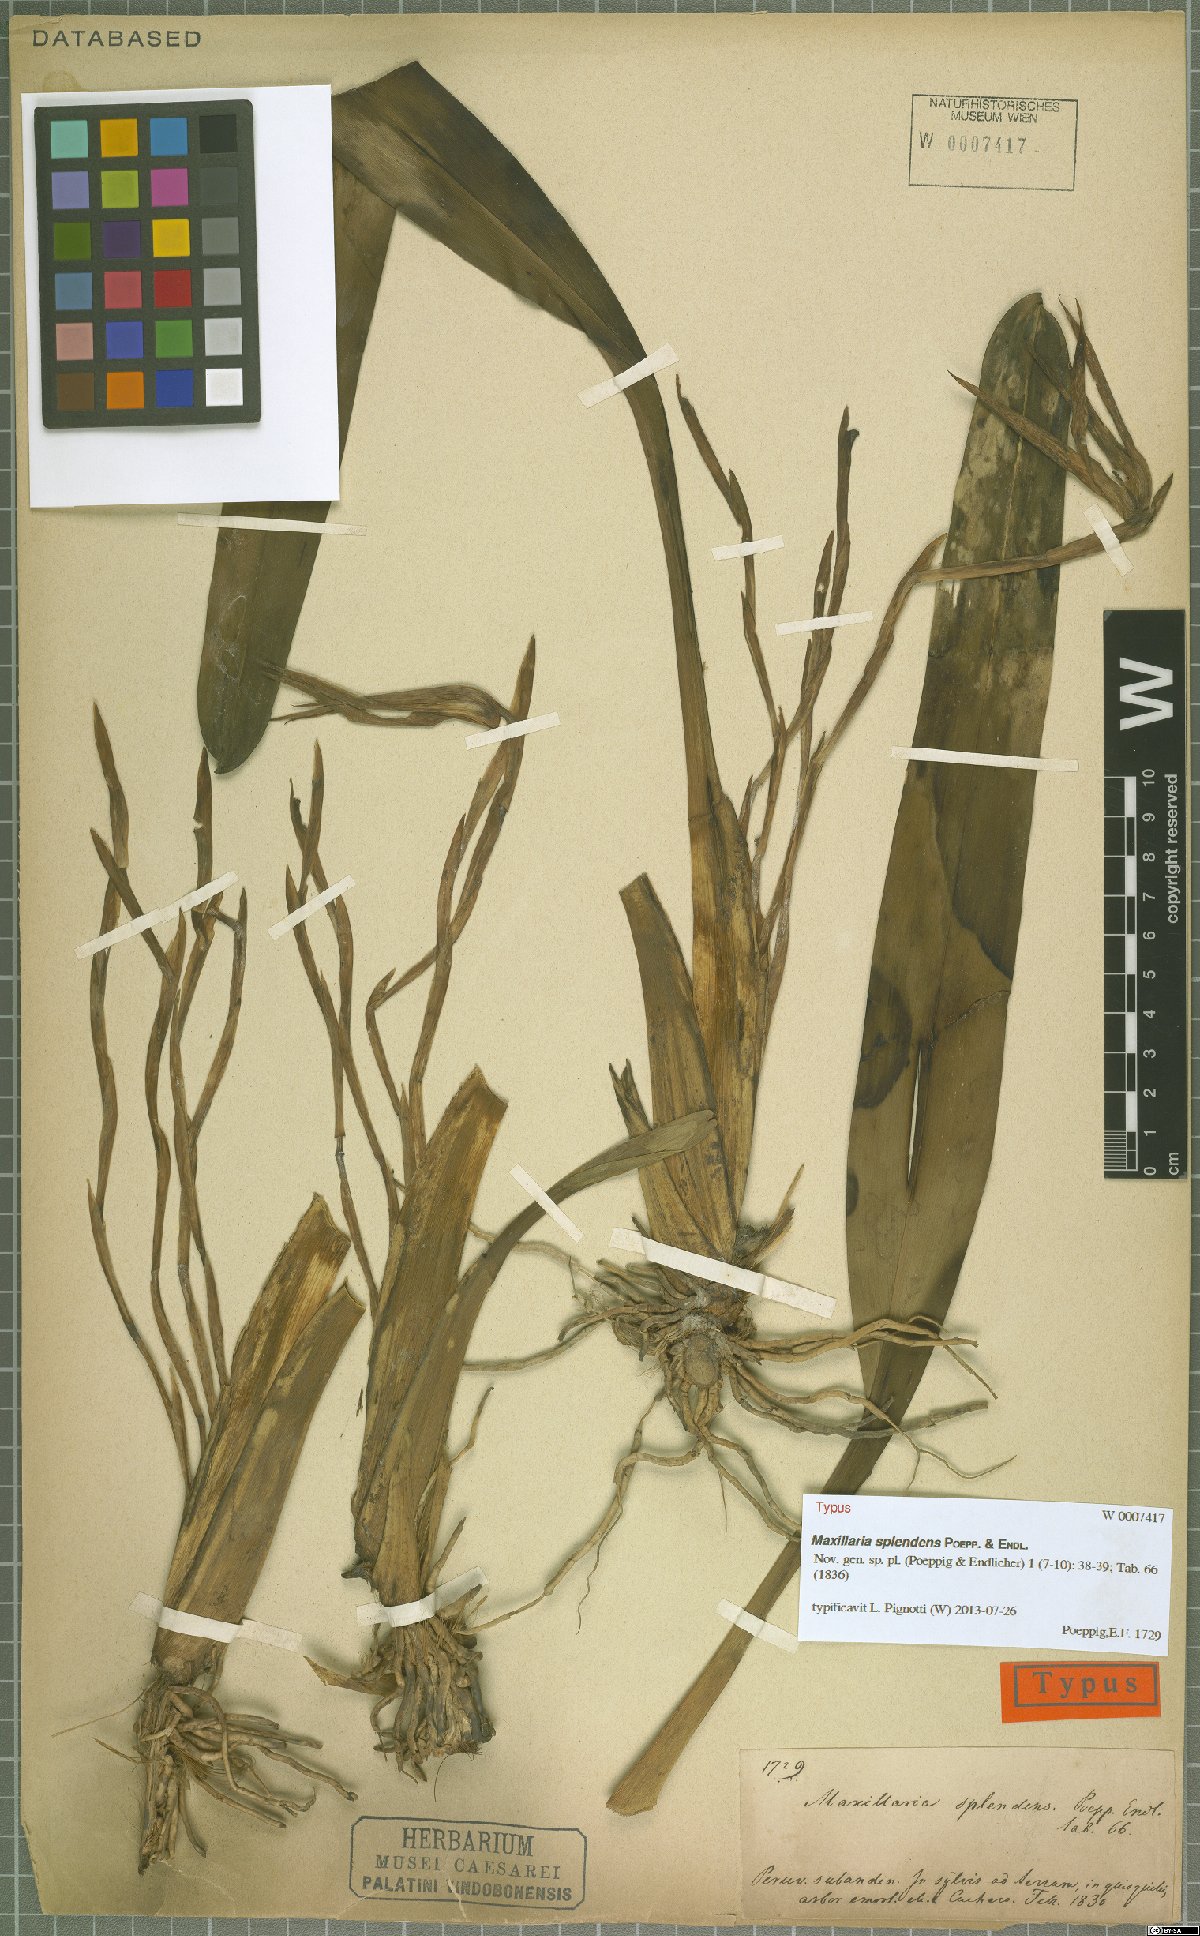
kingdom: Plantae
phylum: Tracheophyta
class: Liliopsida
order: Asparagales
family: Orchidaceae
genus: Maxillaria
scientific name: Maxillaria splendens
